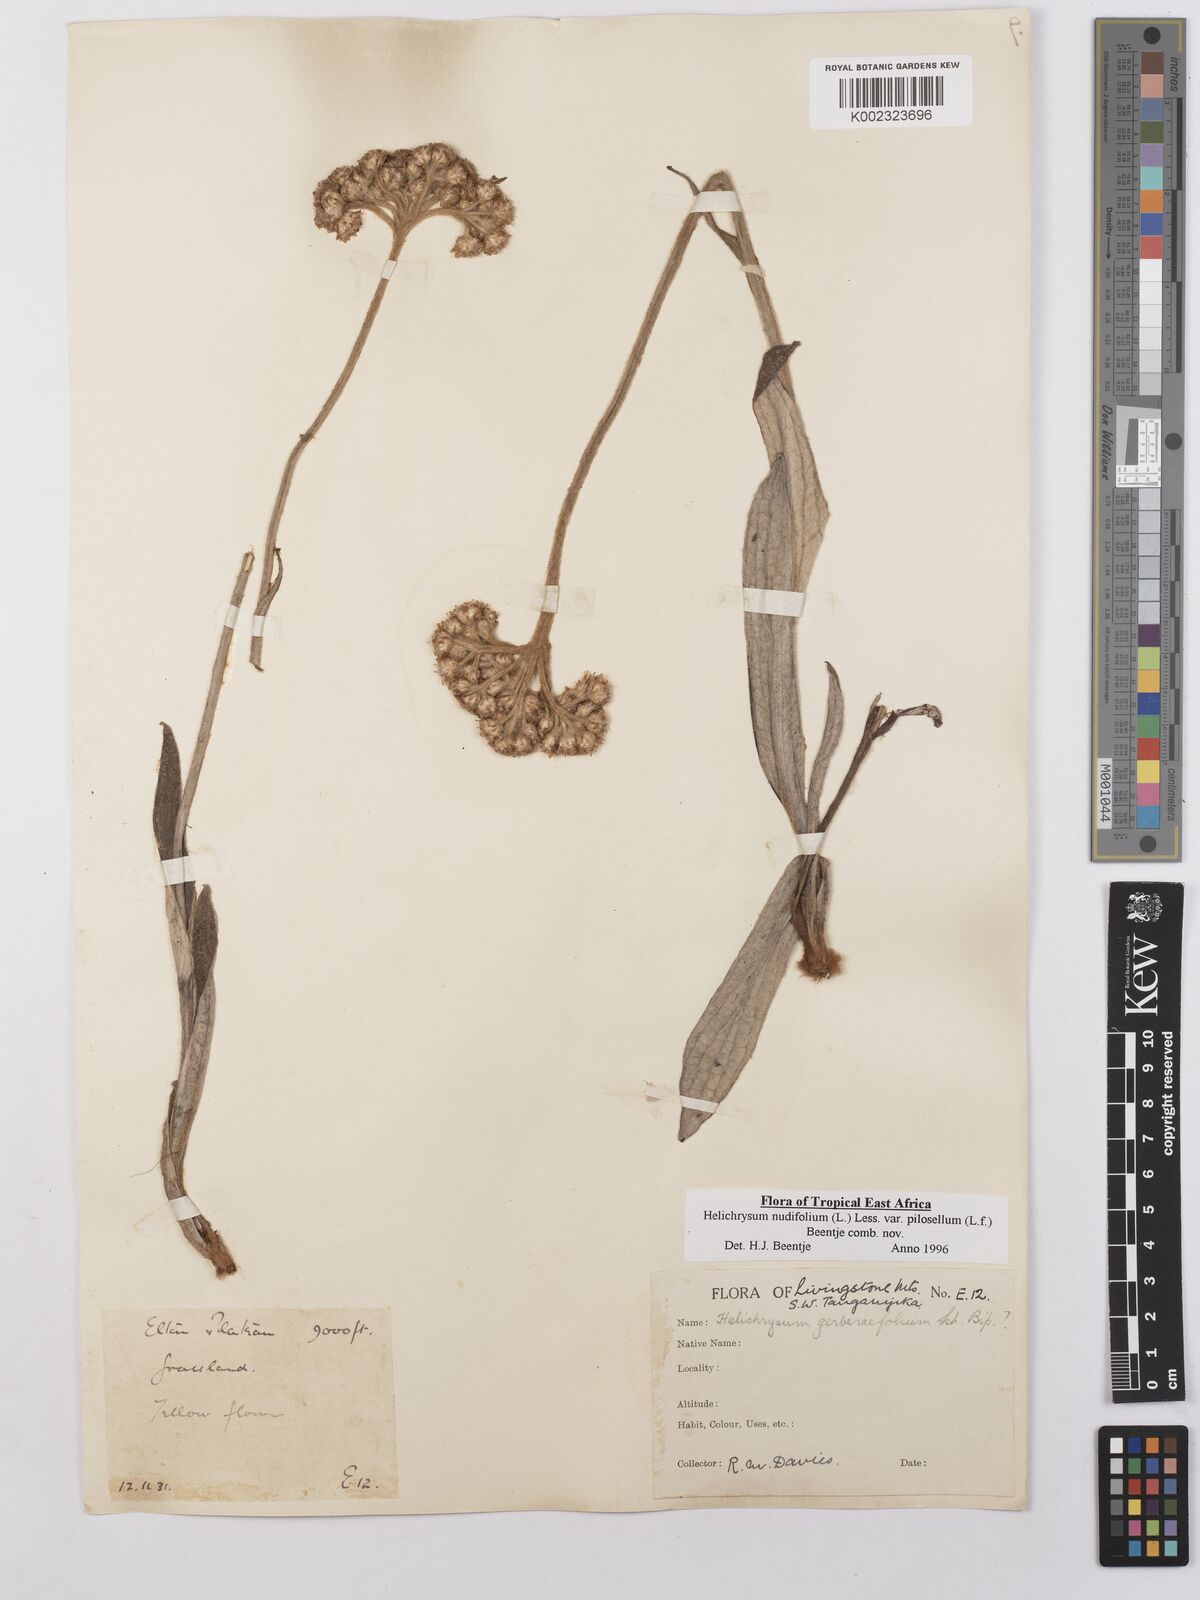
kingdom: Plantae
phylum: Tracheophyta
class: Magnoliopsida
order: Asterales
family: Asteraceae
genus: Helichrysum
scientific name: Helichrysum nudifolium
